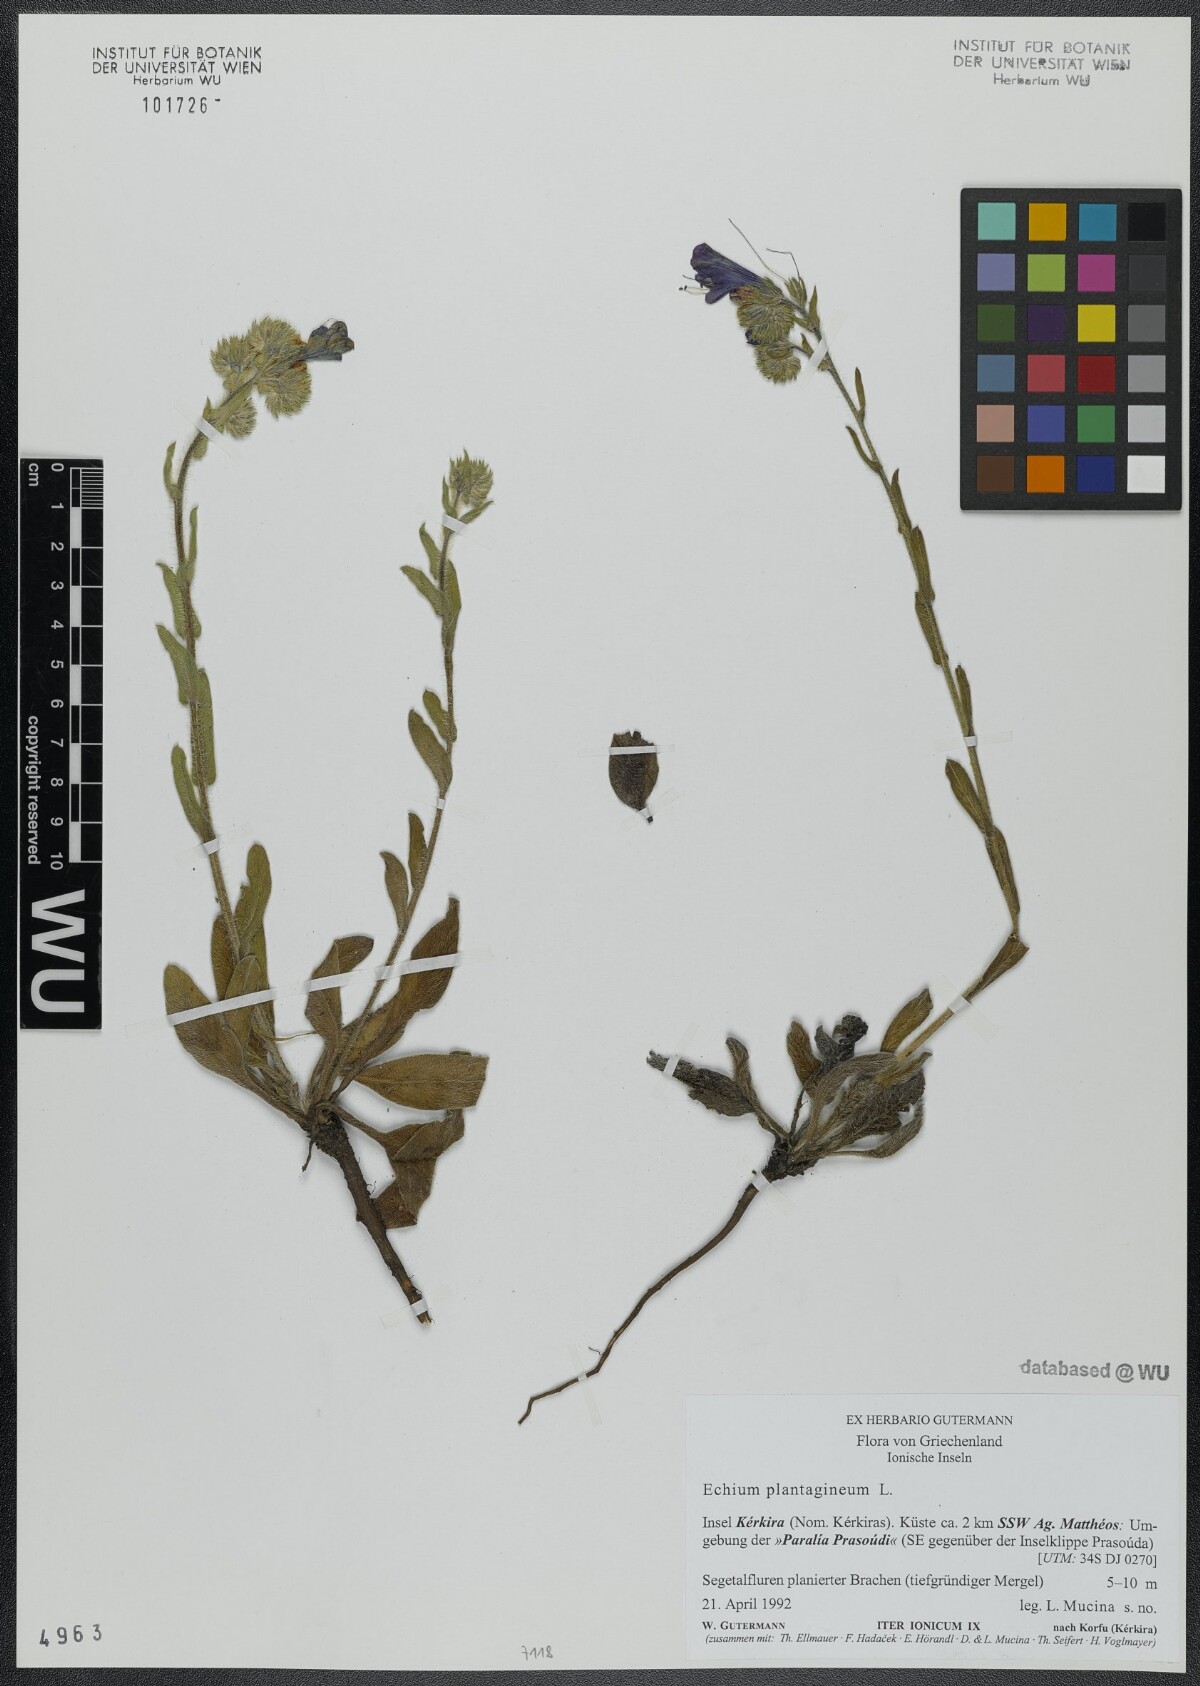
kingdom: Plantae
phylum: Tracheophyta
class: Magnoliopsida
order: Boraginales
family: Boraginaceae
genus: Echium
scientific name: Echium plantagineum
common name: Purple viper's-bugloss
